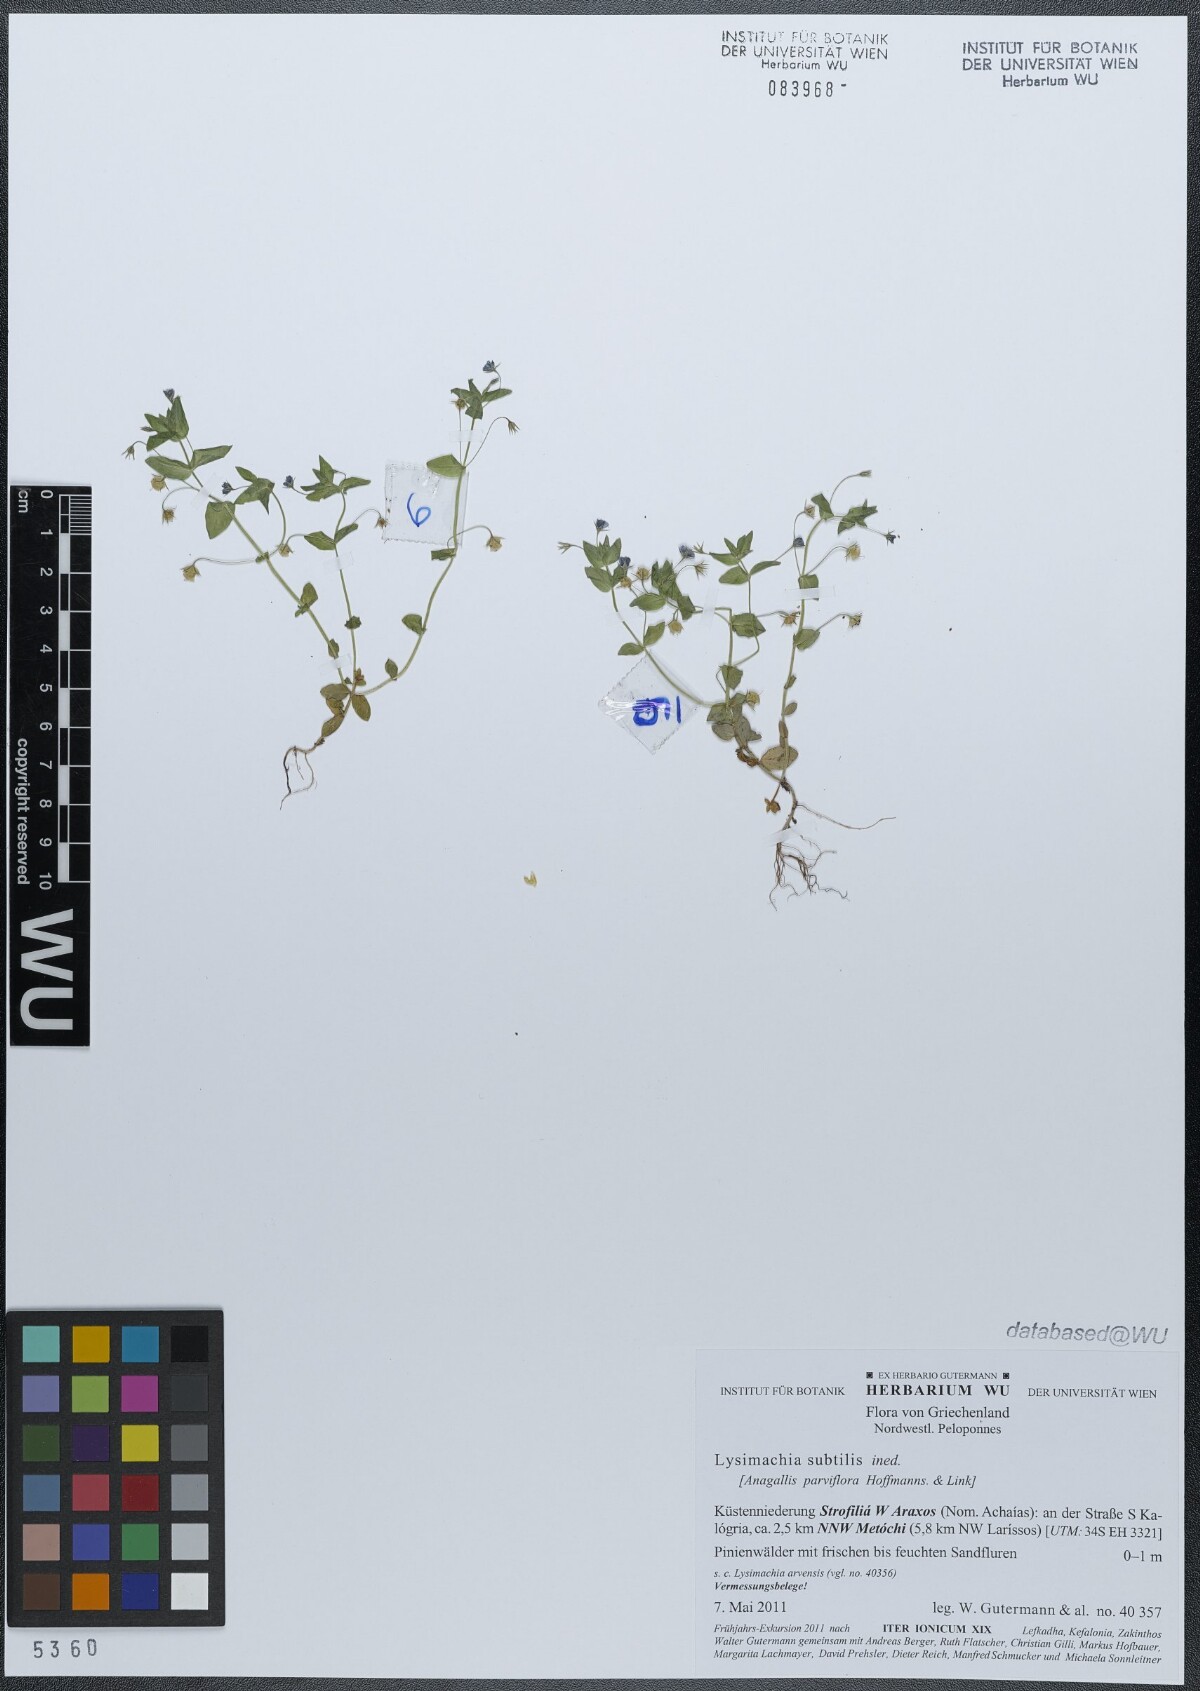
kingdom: Plantae
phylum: Tracheophyta
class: Magnoliopsida
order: Ericales
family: Primulaceae
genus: Lysimachia
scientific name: Lysimachia talaverae
